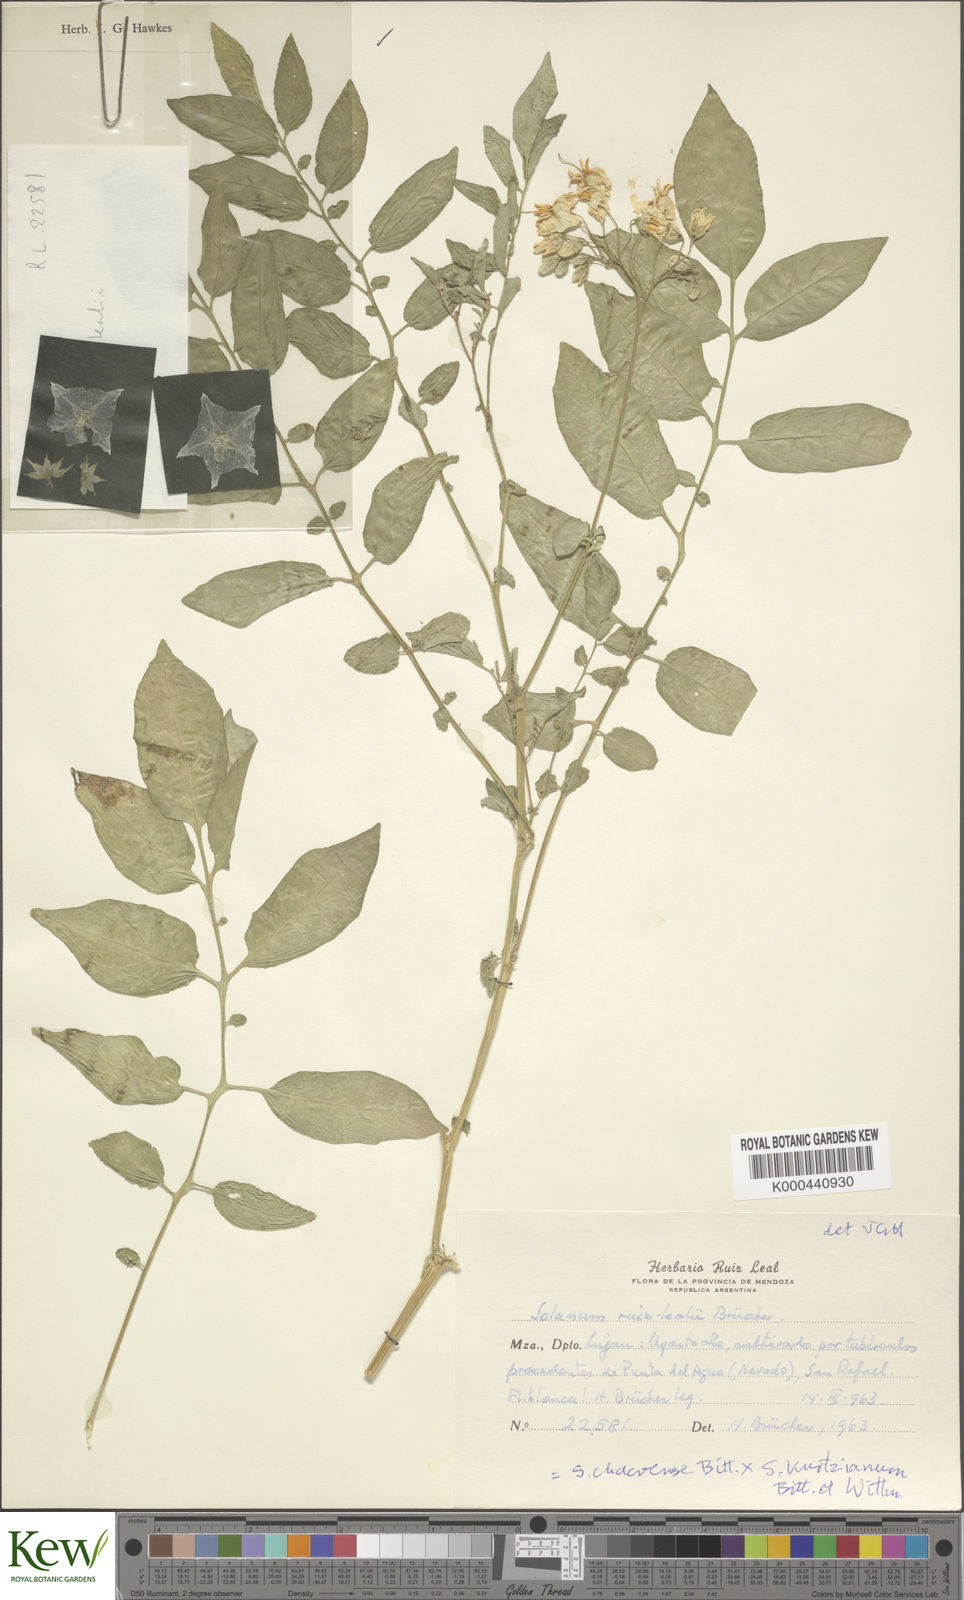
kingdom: Plantae
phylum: Tracheophyta
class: Magnoliopsida
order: Solanales
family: Solanaceae
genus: Solanum
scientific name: Solanum
